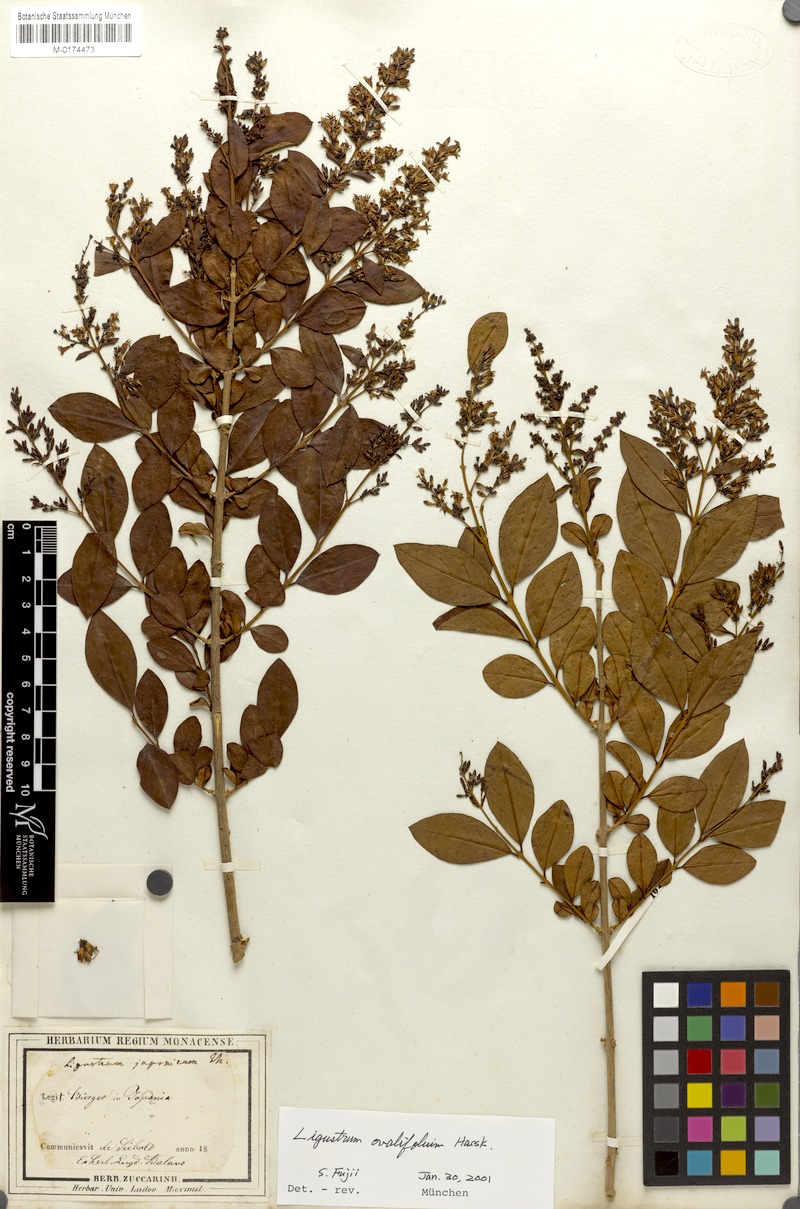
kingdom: Plantae
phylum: Tracheophyta
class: Magnoliopsida
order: Lamiales
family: Oleaceae
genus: Ligustrum
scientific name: Ligustrum ovalifolium
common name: California privet
